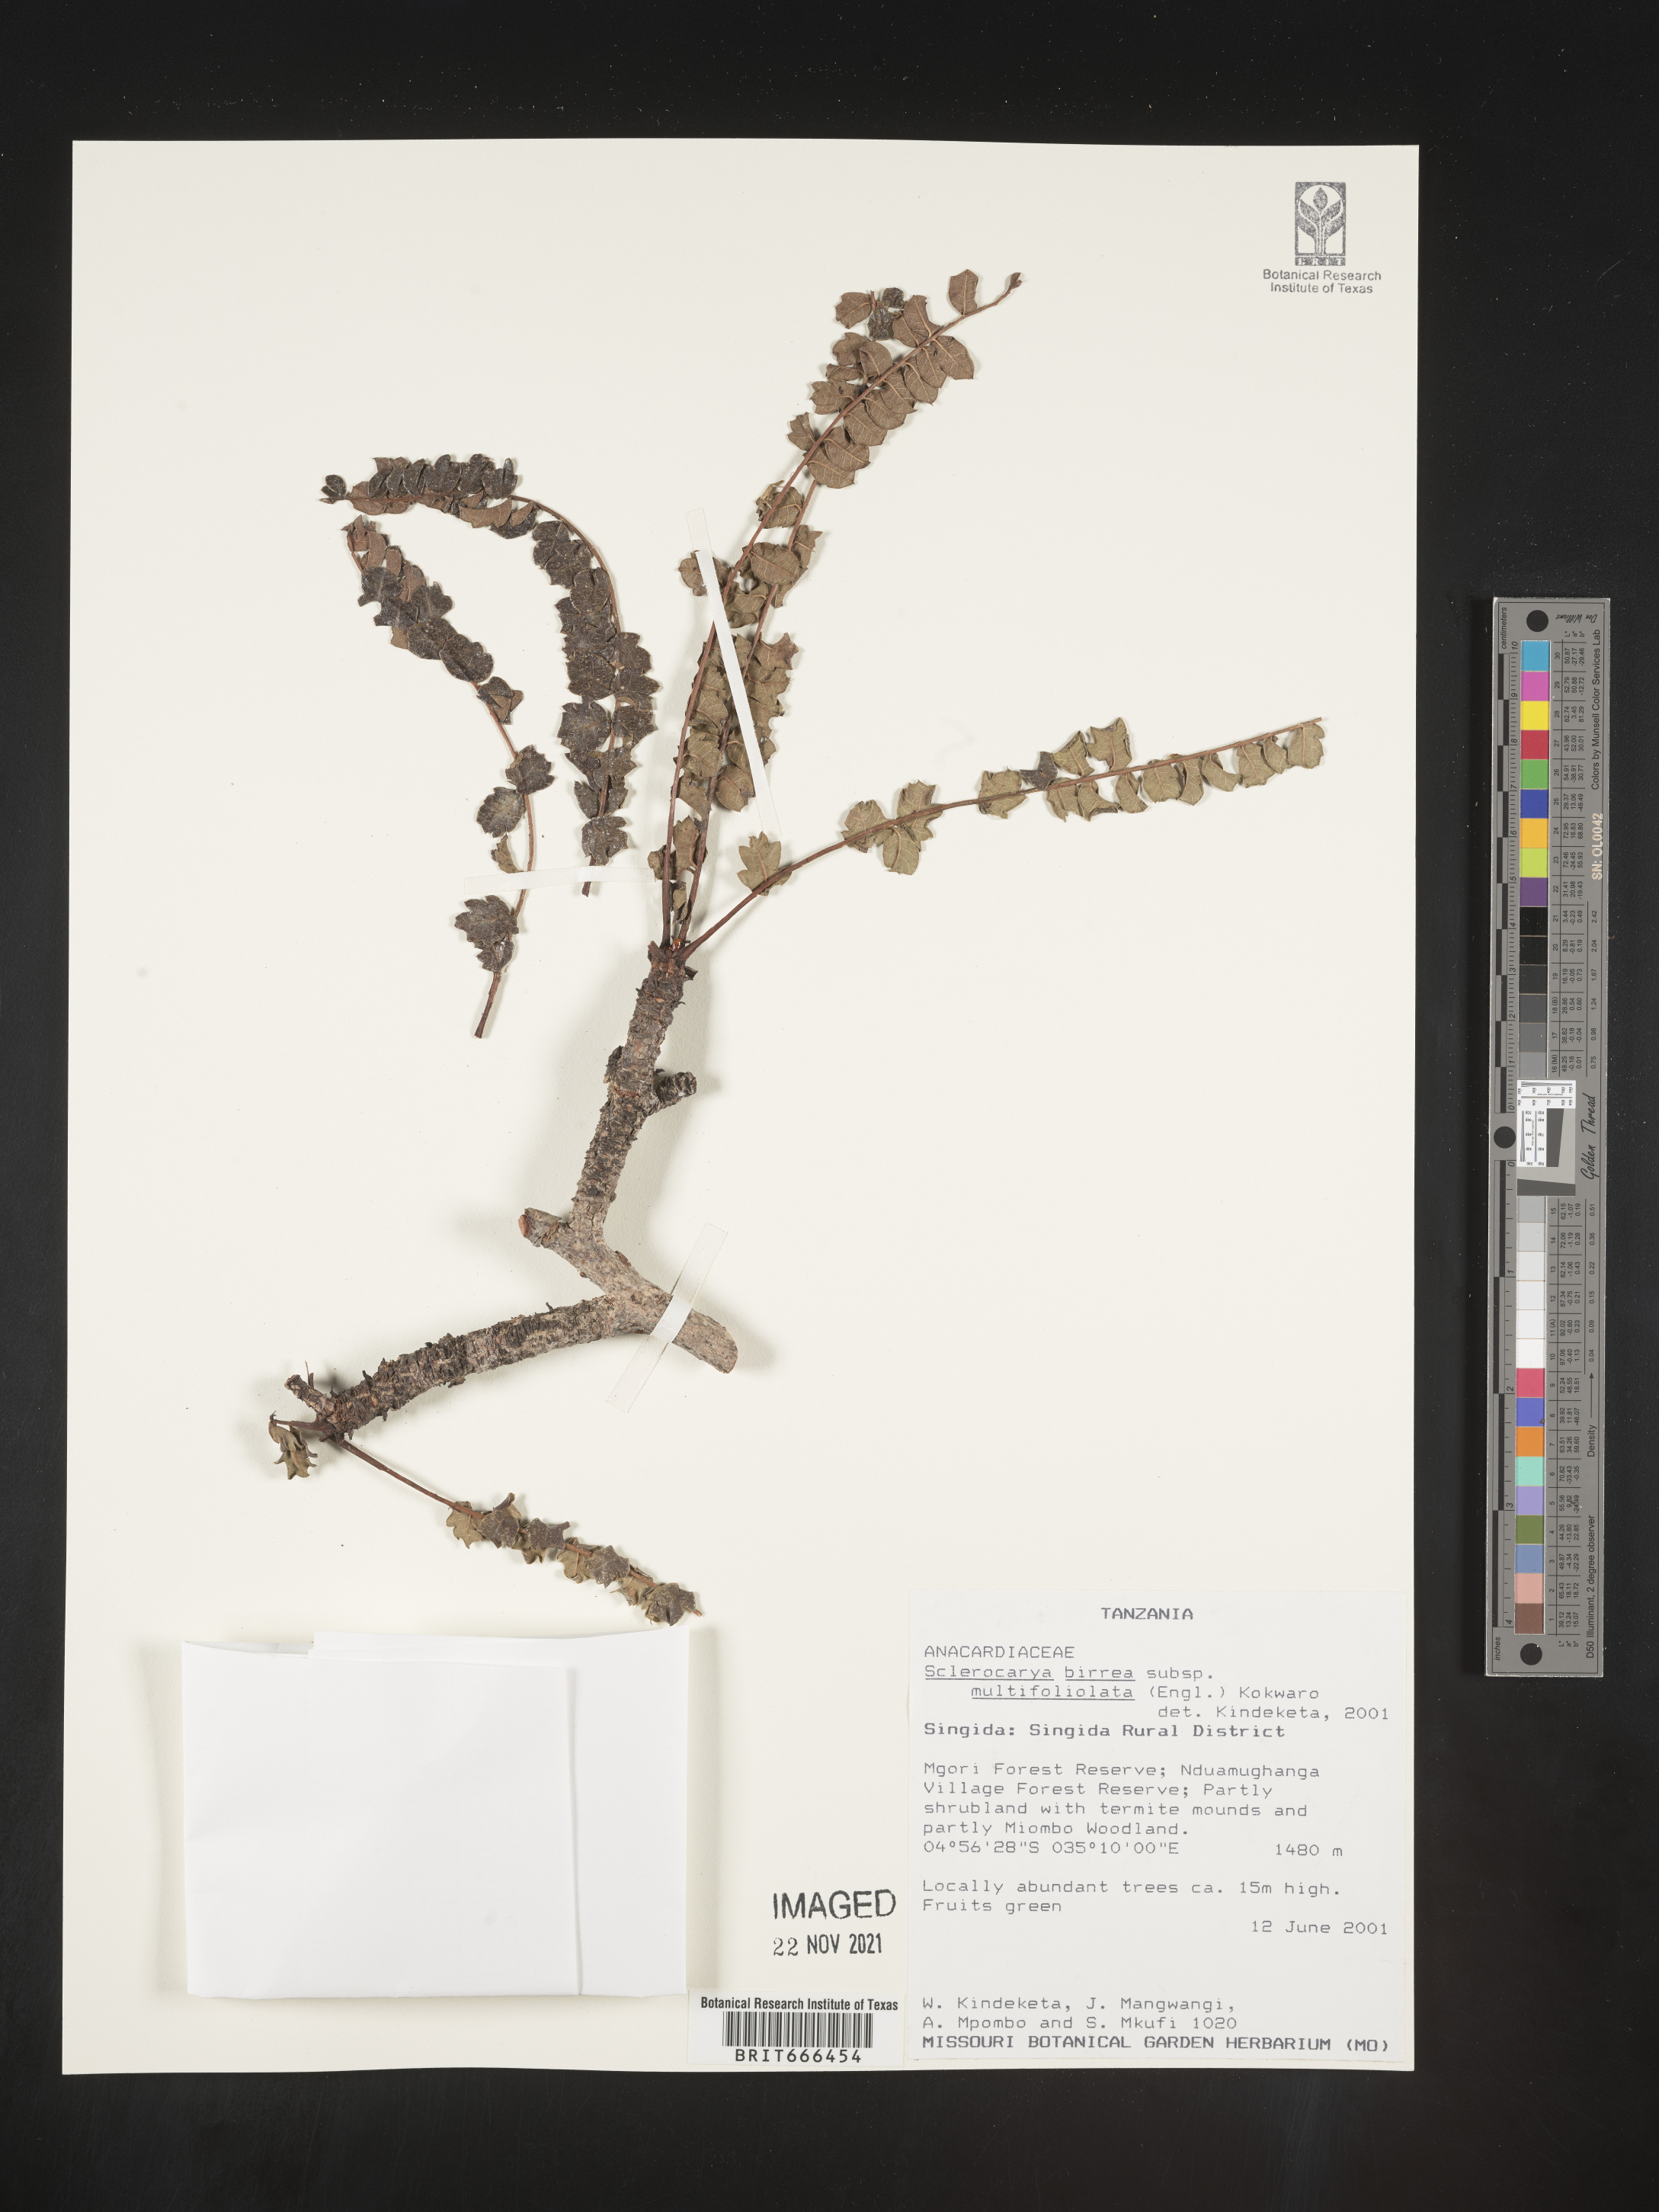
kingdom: Plantae
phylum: Tracheophyta
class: Magnoliopsida
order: Sapindales
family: Anacardiaceae
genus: Sclerocarya
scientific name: Sclerocarya birrea
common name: Marula
